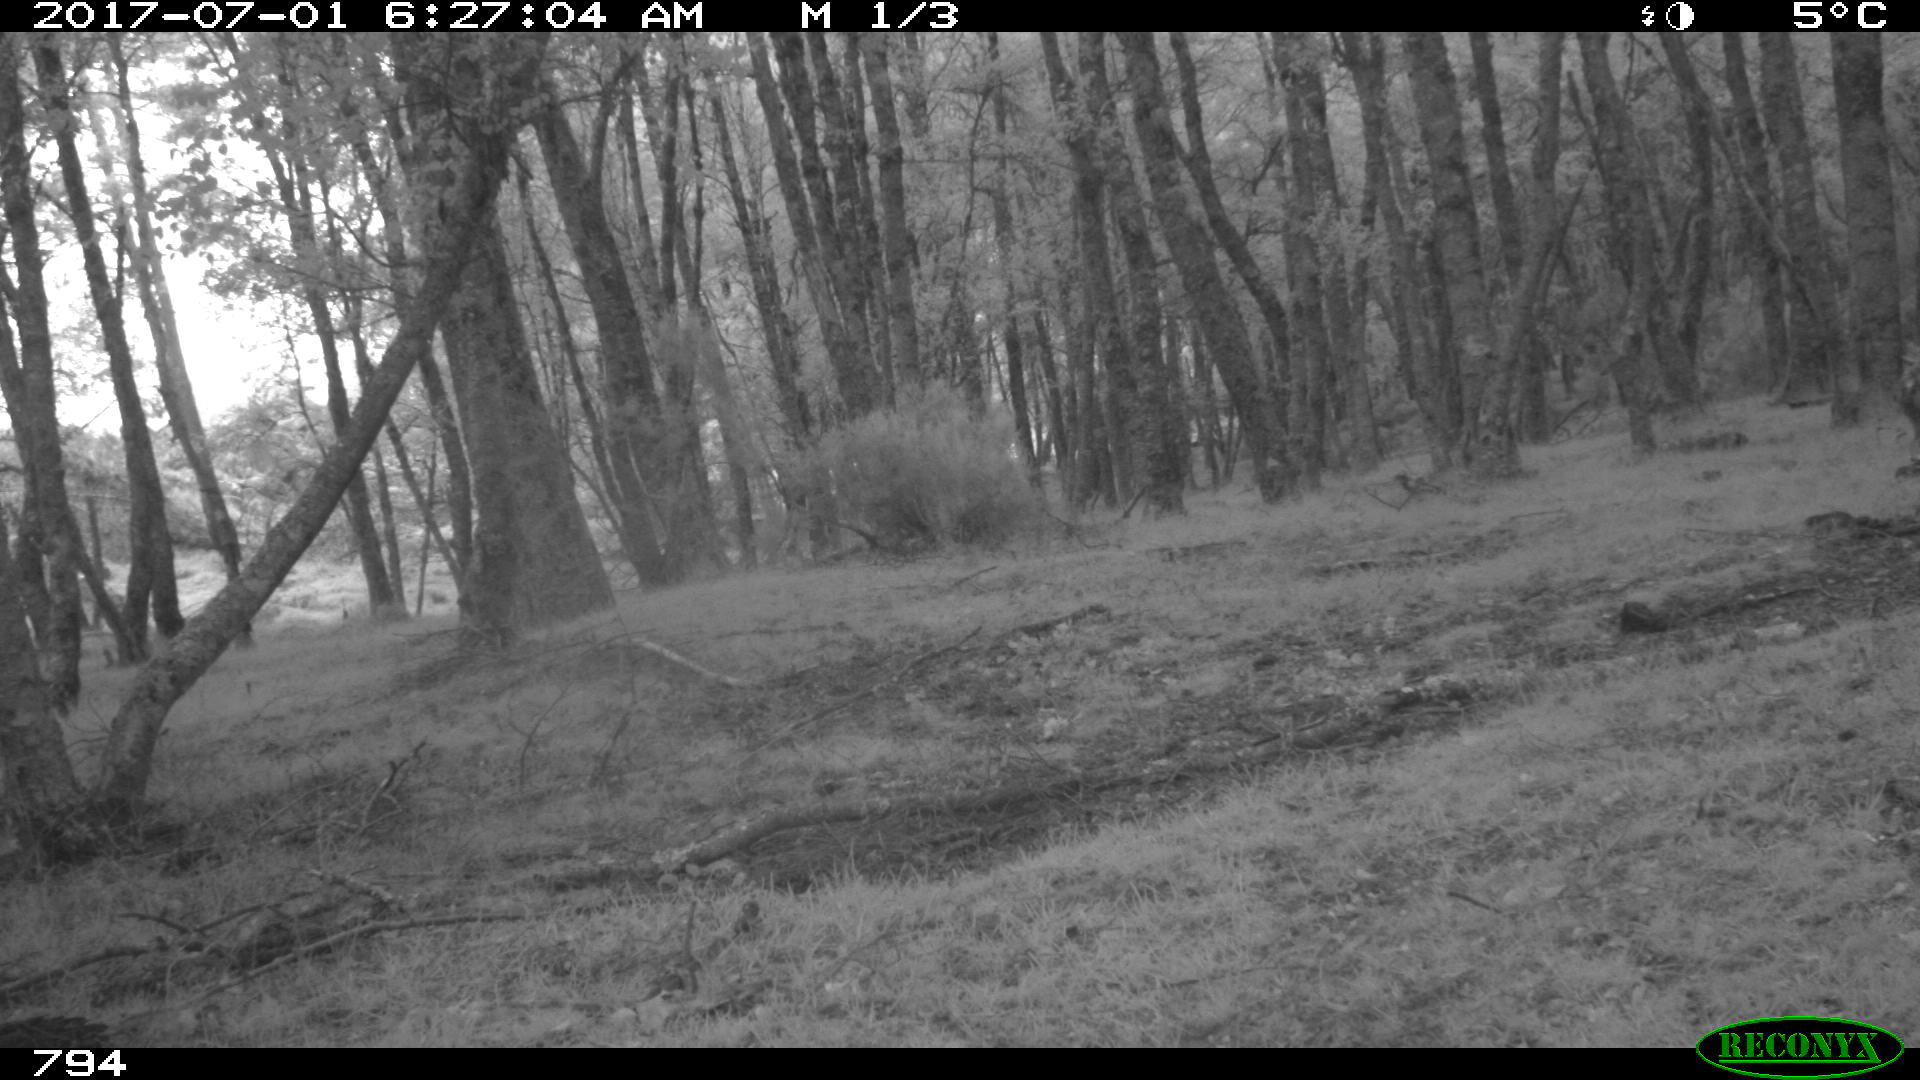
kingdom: Animalia
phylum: Chordata
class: Mammalia
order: Perissodactyla
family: Equidae
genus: Equus
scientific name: Equus caballus
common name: Horse
